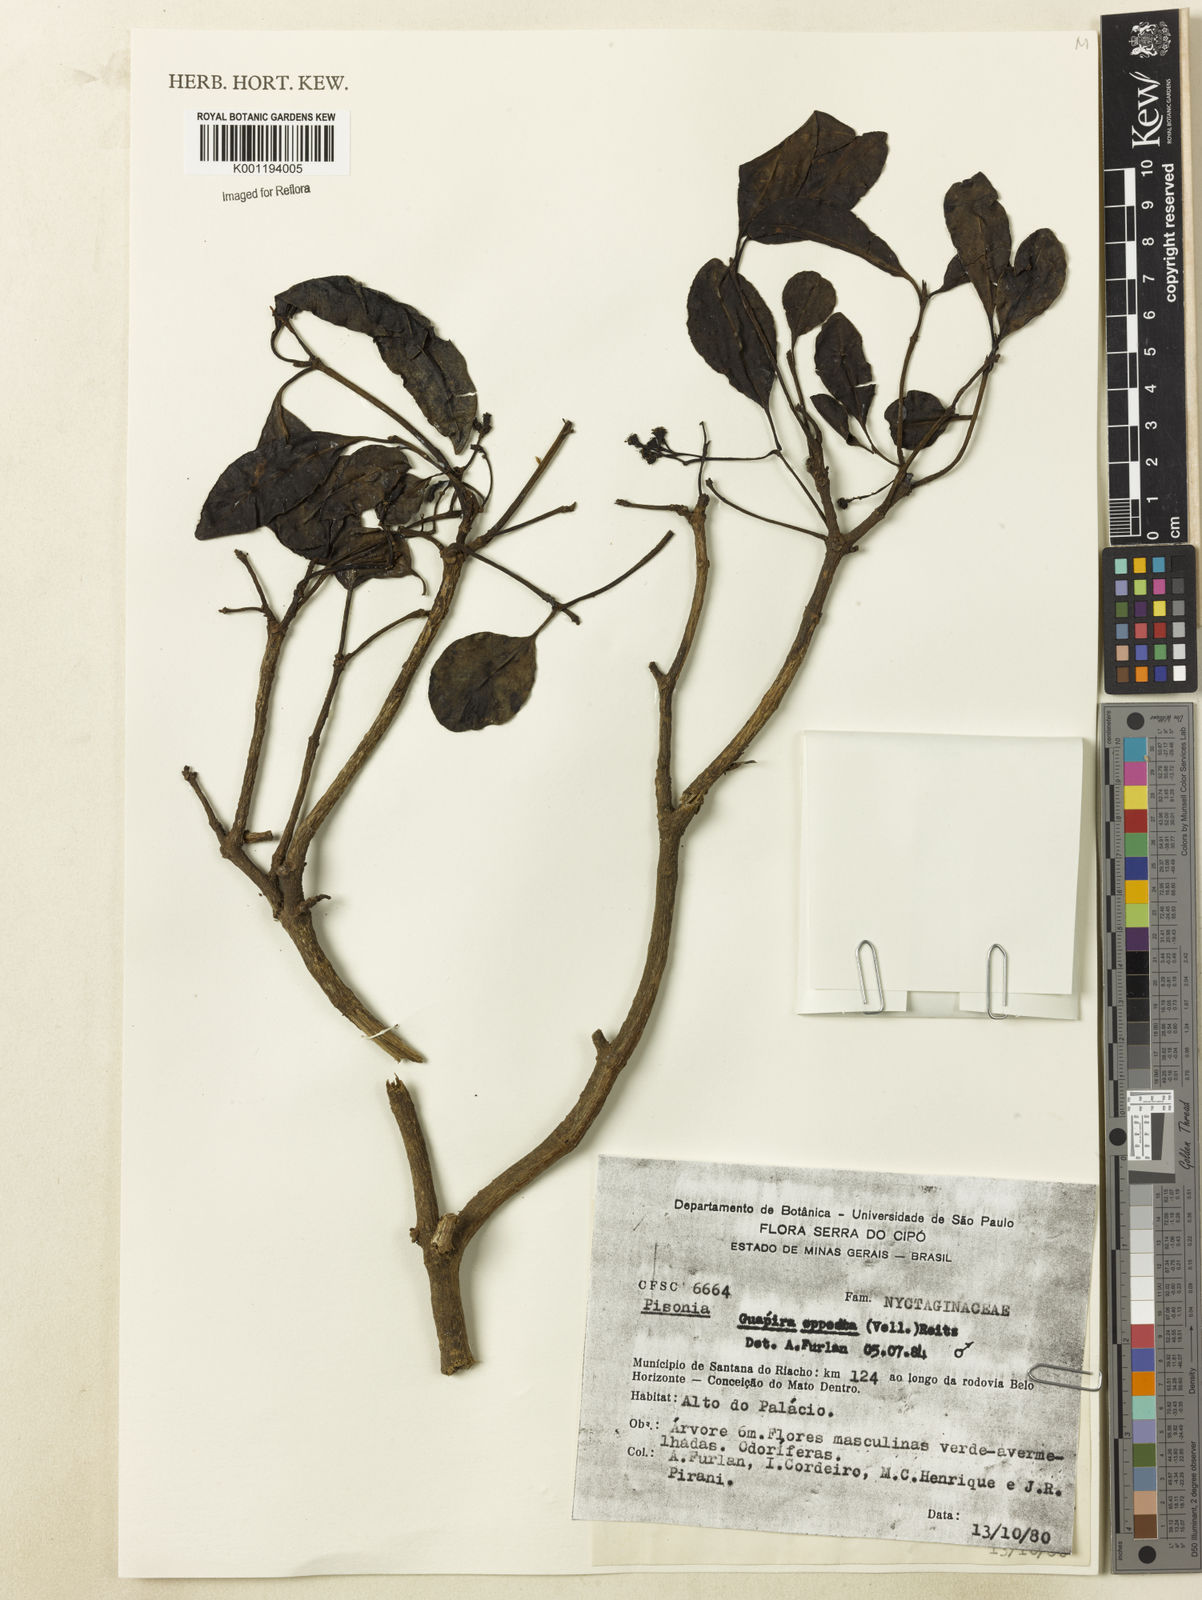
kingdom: Plantae
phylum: Tracheophyta
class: Magnoliopsida
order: Caryophyllales
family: Nyctaginaceae
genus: Guapira
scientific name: Guapira opposita
